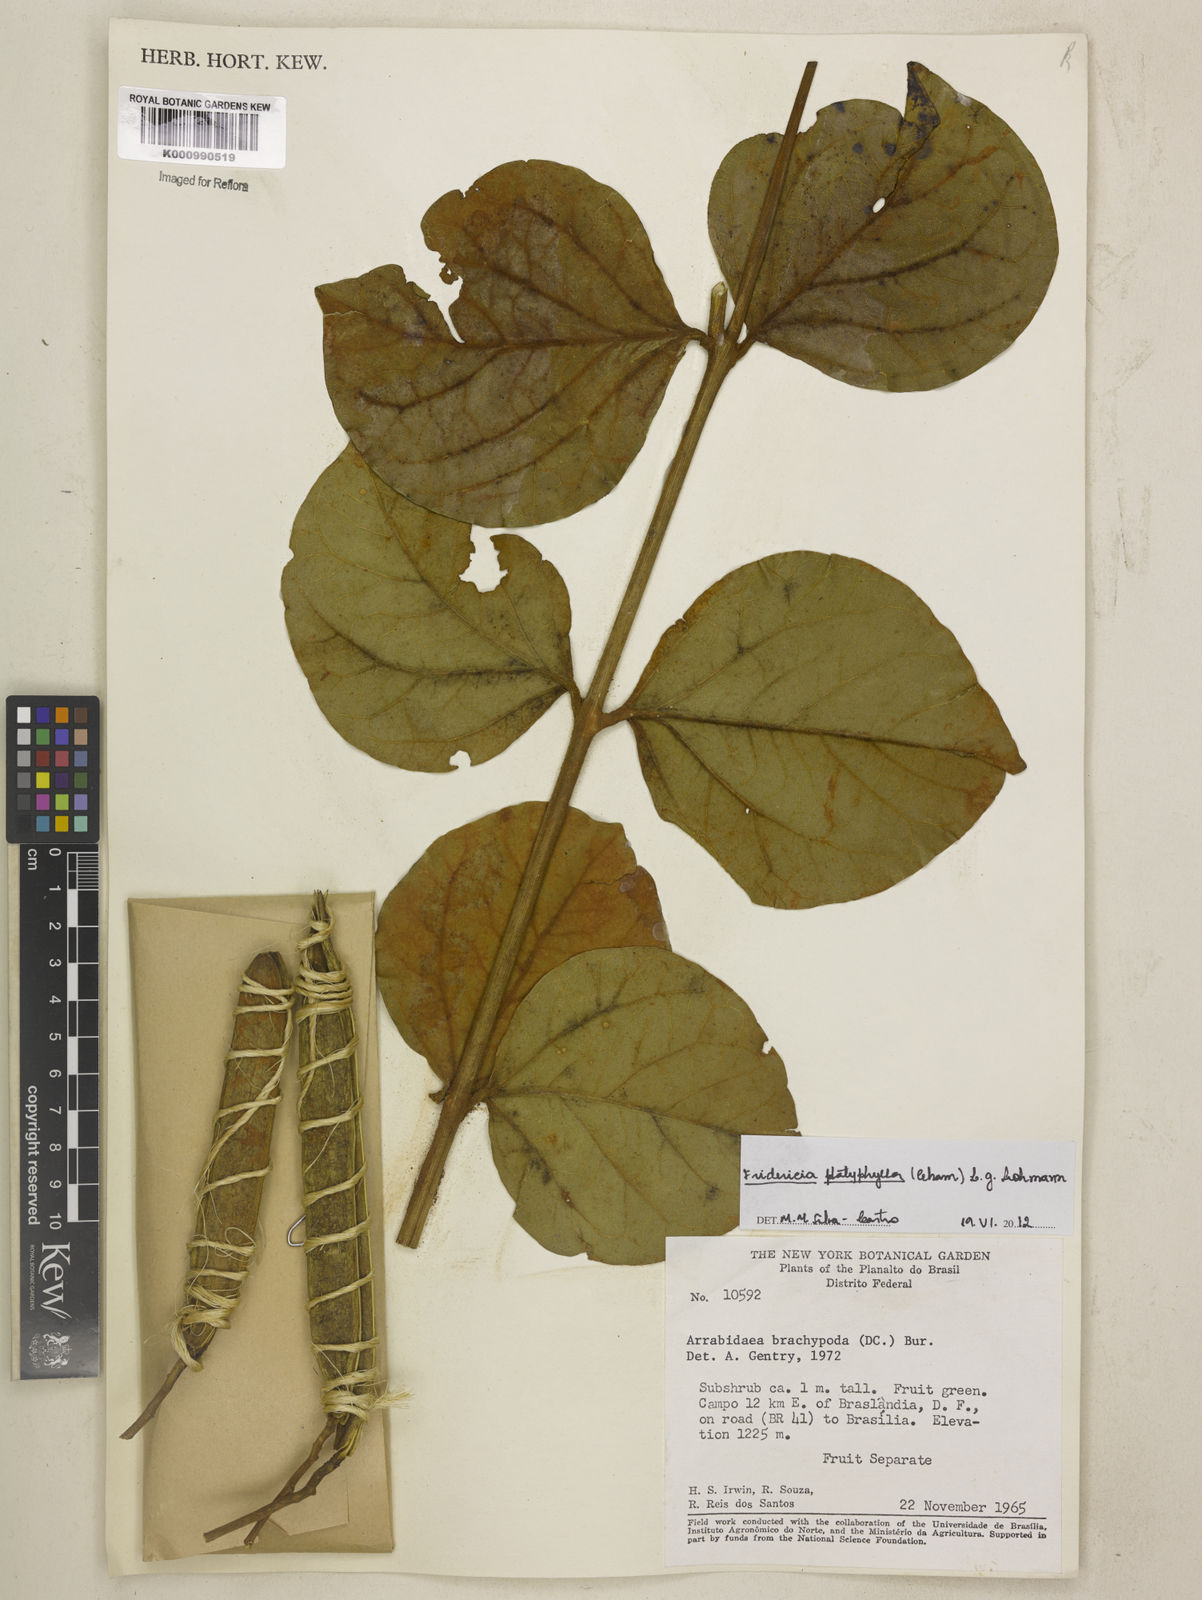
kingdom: Plantae
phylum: Tracheophyta
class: Magnoliopsida
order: Lamiales
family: Bignoniaceae
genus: Fridericia
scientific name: Fridericia platyphylla
